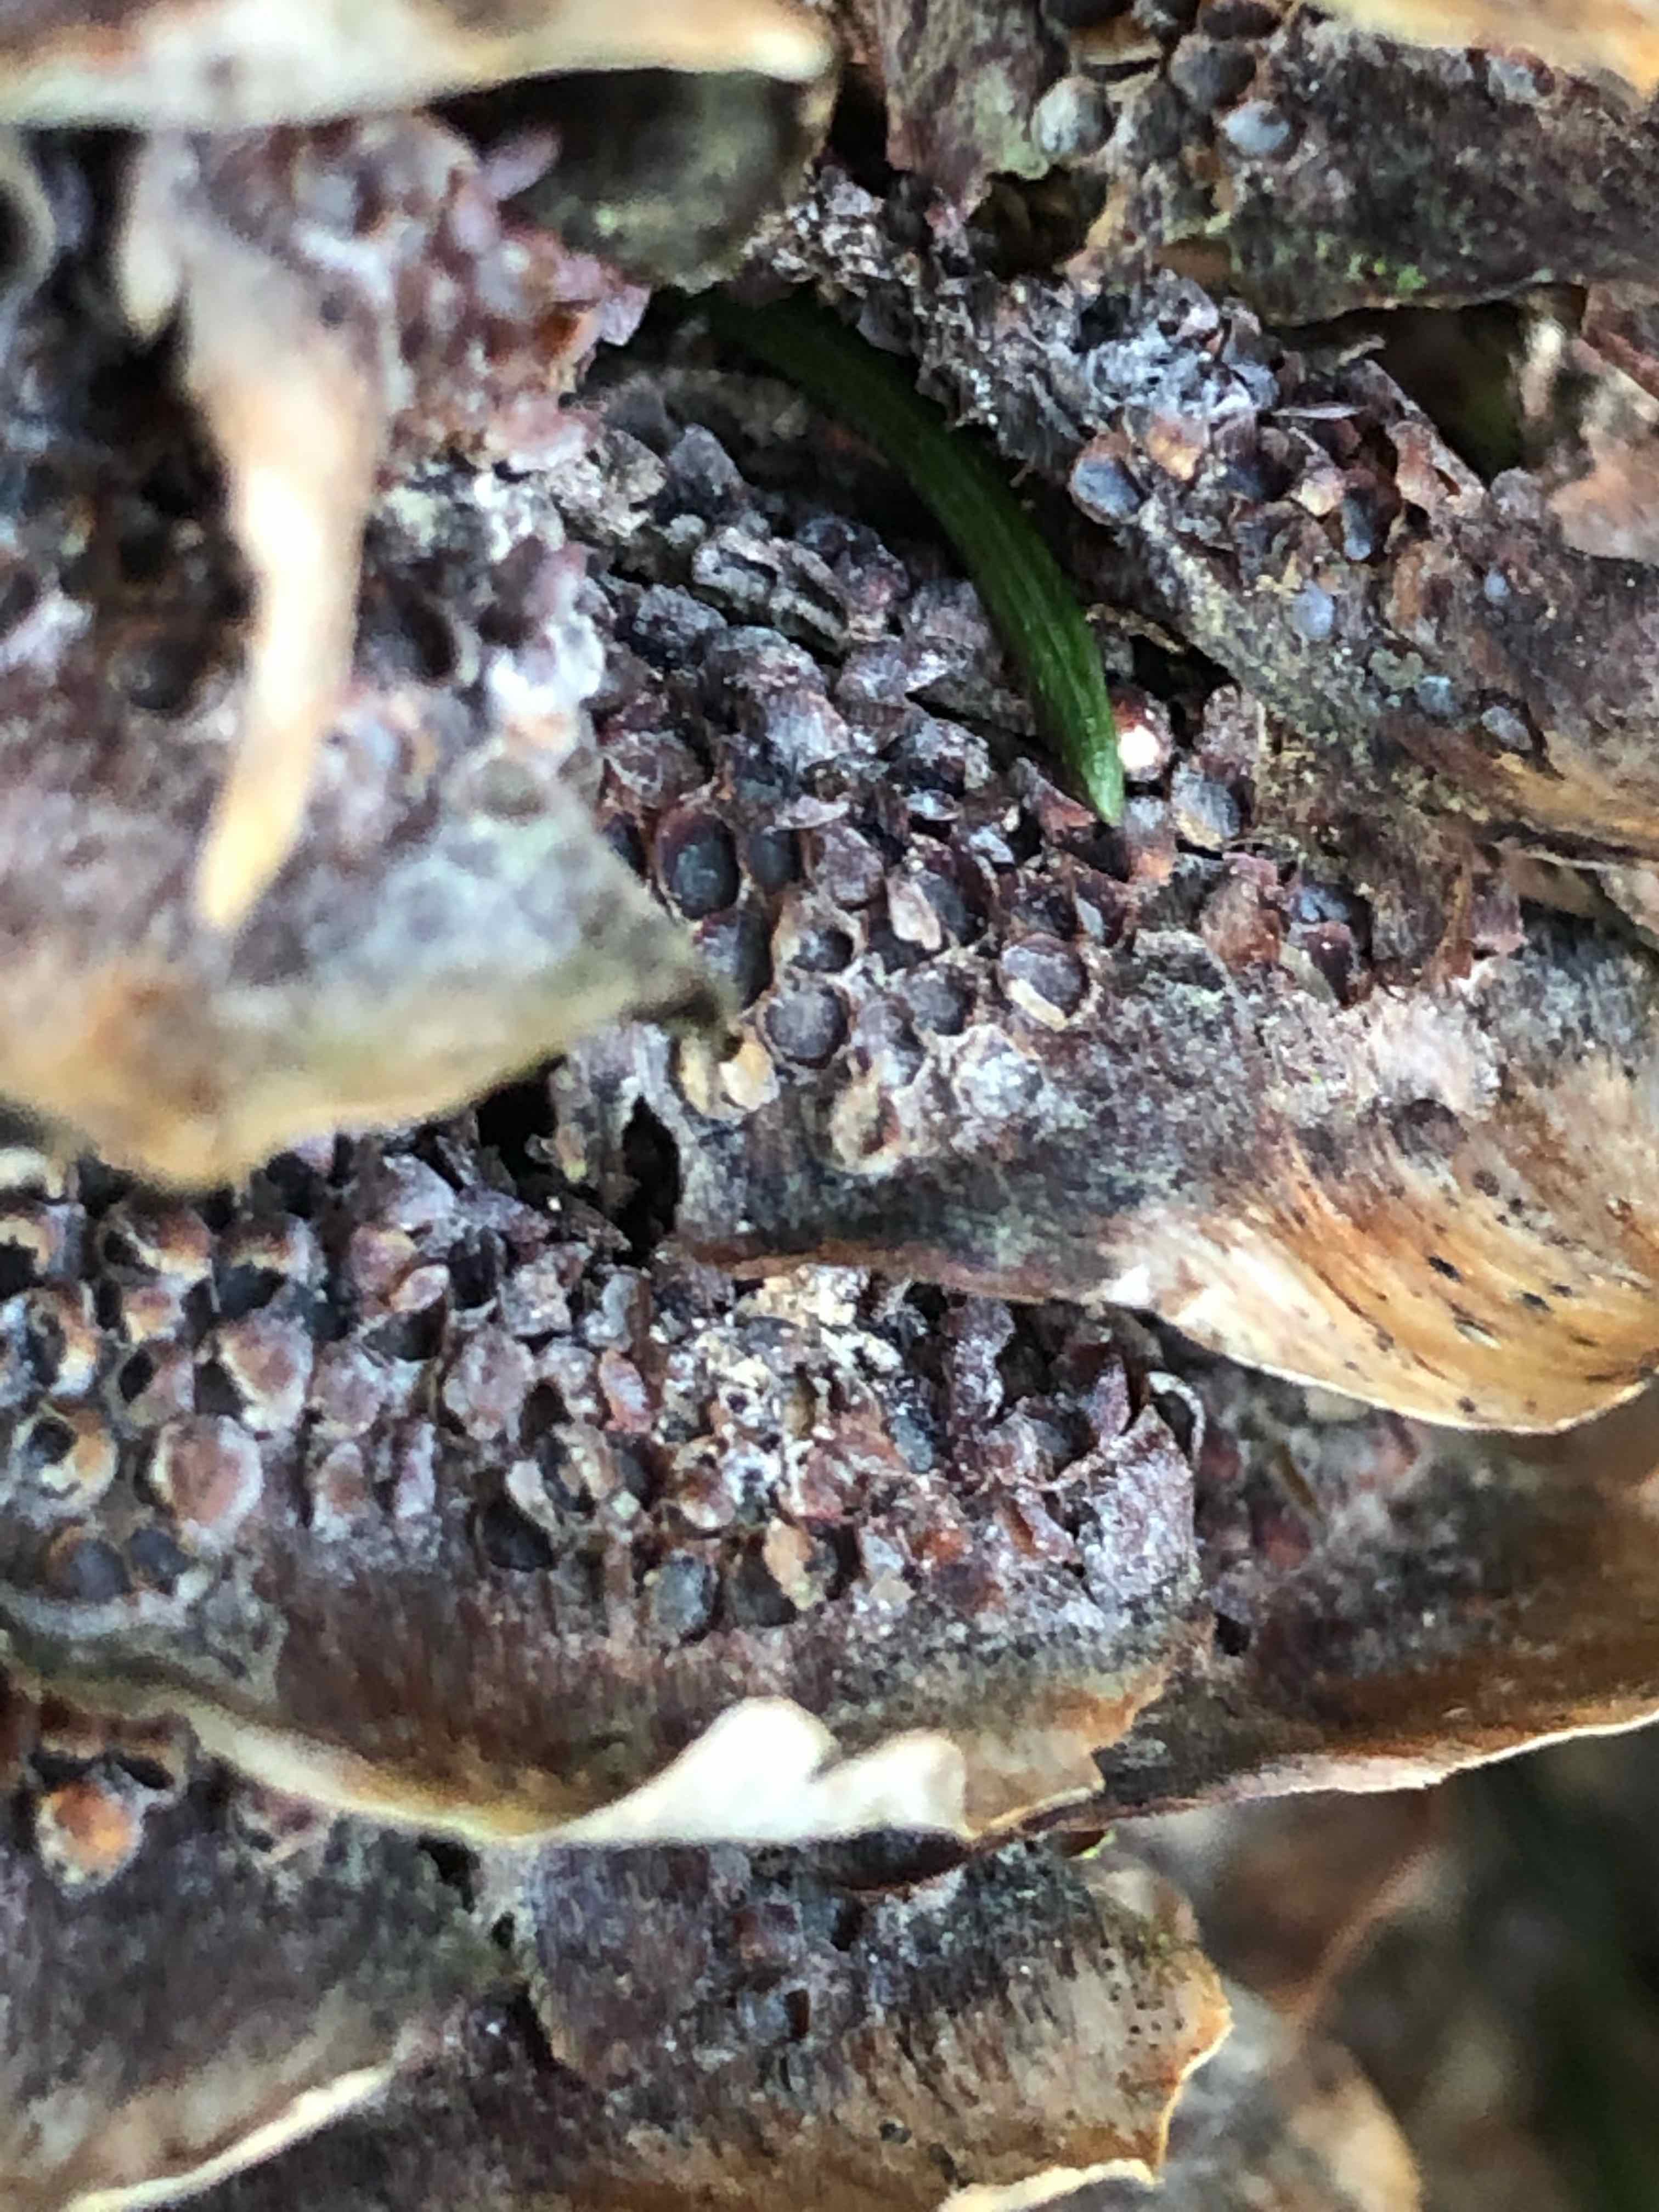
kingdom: Fungi
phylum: Basidiomycota
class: Pucciniomycetes
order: Pucciniales
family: Pucciniastraceae
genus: Thekopsora
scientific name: Thekopsora areolata
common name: grankogle-nålerust
